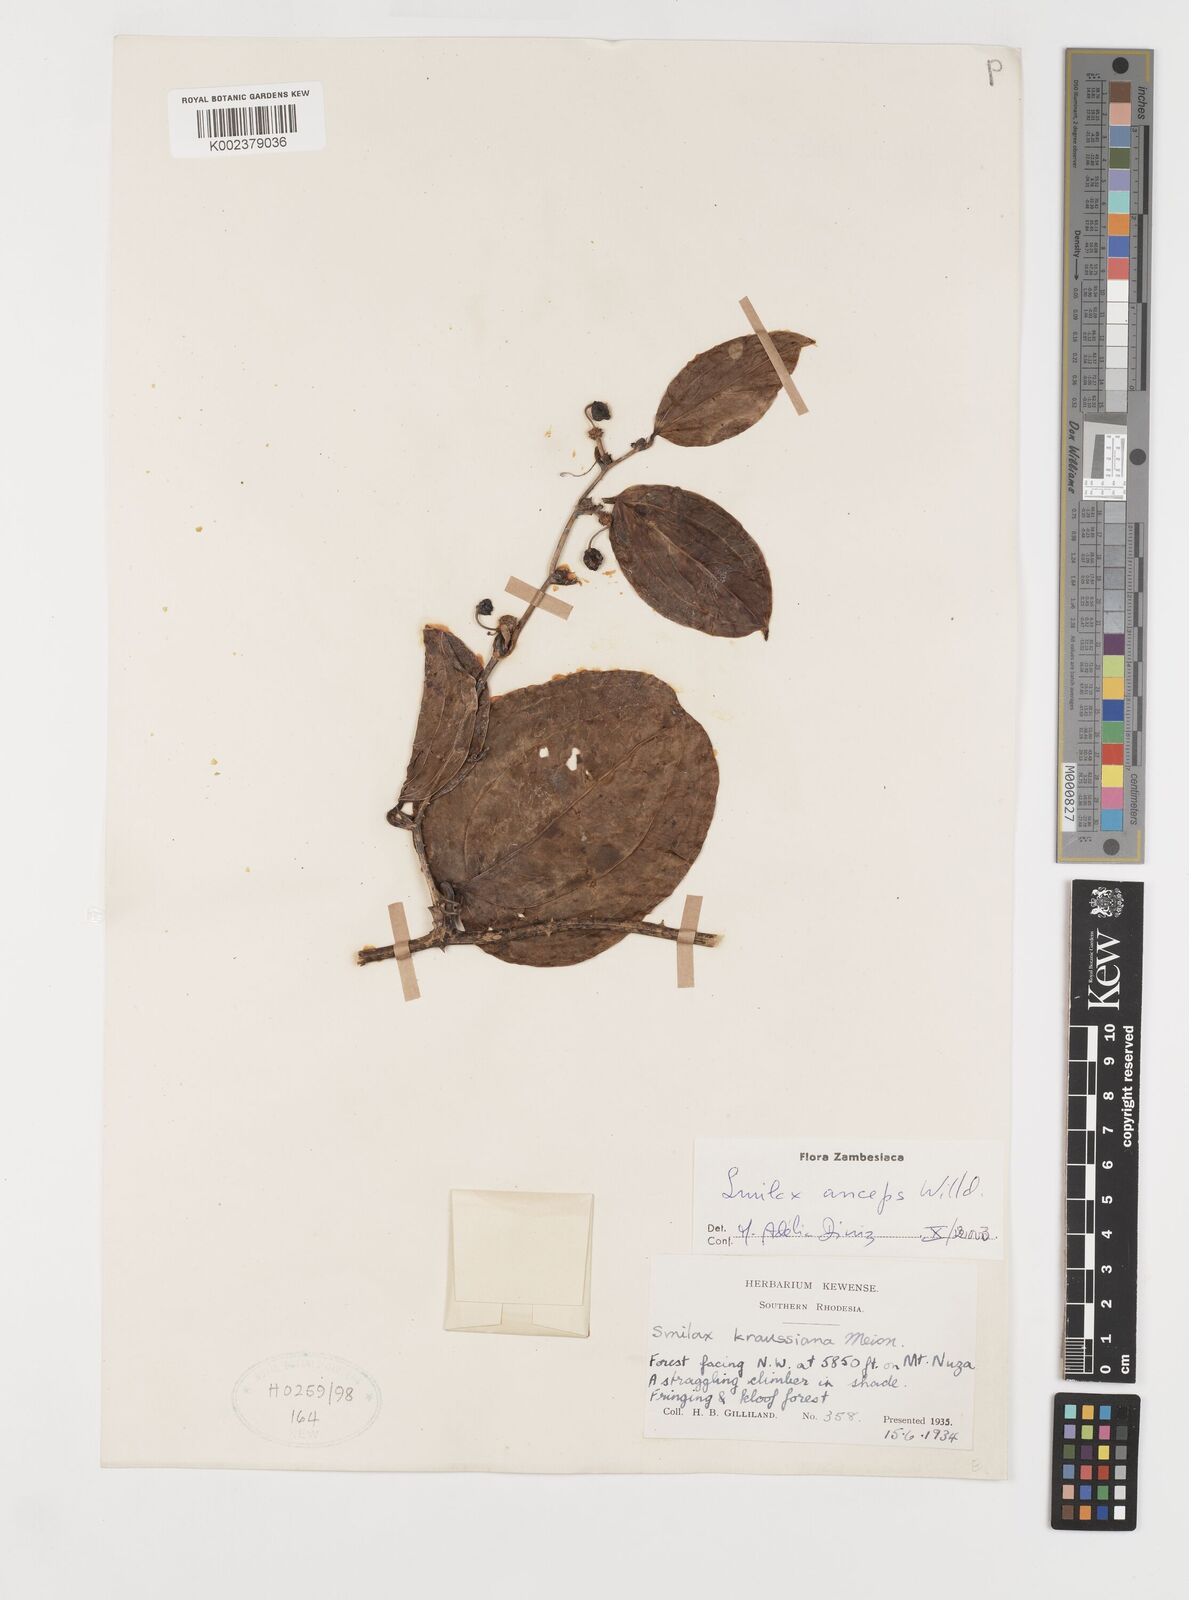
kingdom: Plantae
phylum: Tracheophyta
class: Liliopsida
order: Liliales
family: Smilacaceae
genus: Smilax
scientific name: Smilax anceps
